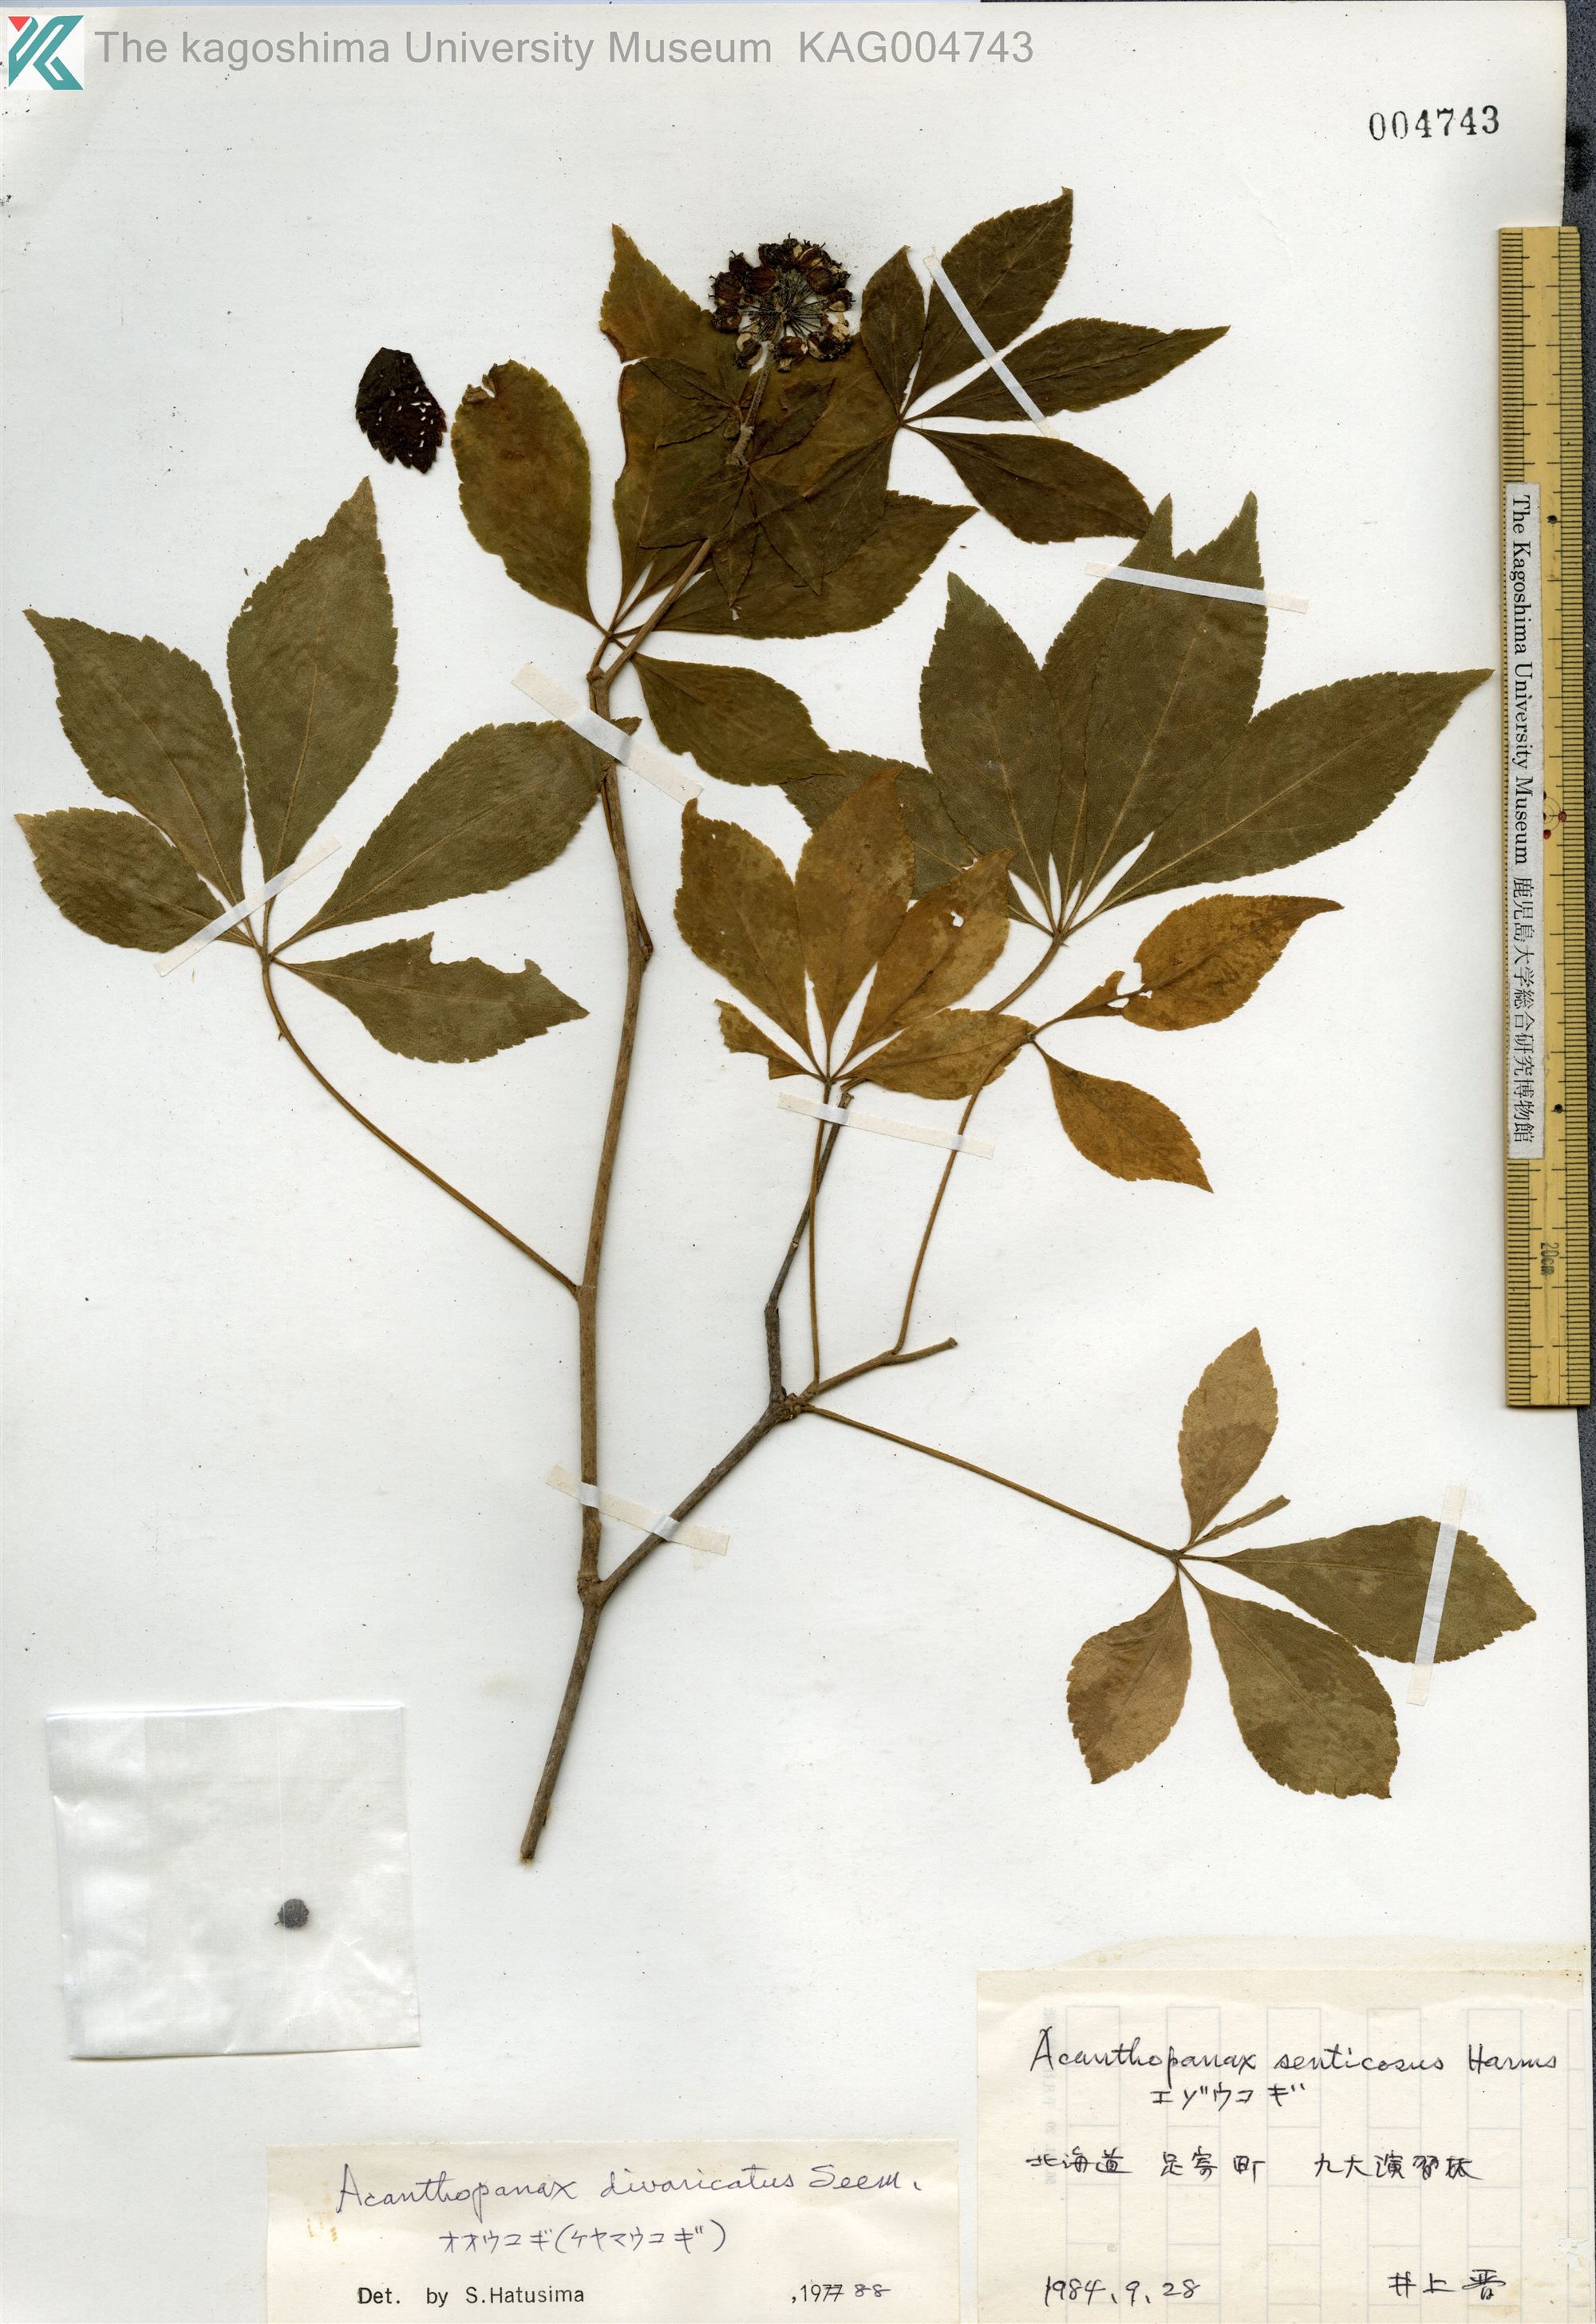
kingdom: Plantae
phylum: Tracheophyta
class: Magnoliopsida
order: Apiales
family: Araliaceae
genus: Eleutherococcus
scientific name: Eleutherococcus divaricatus
